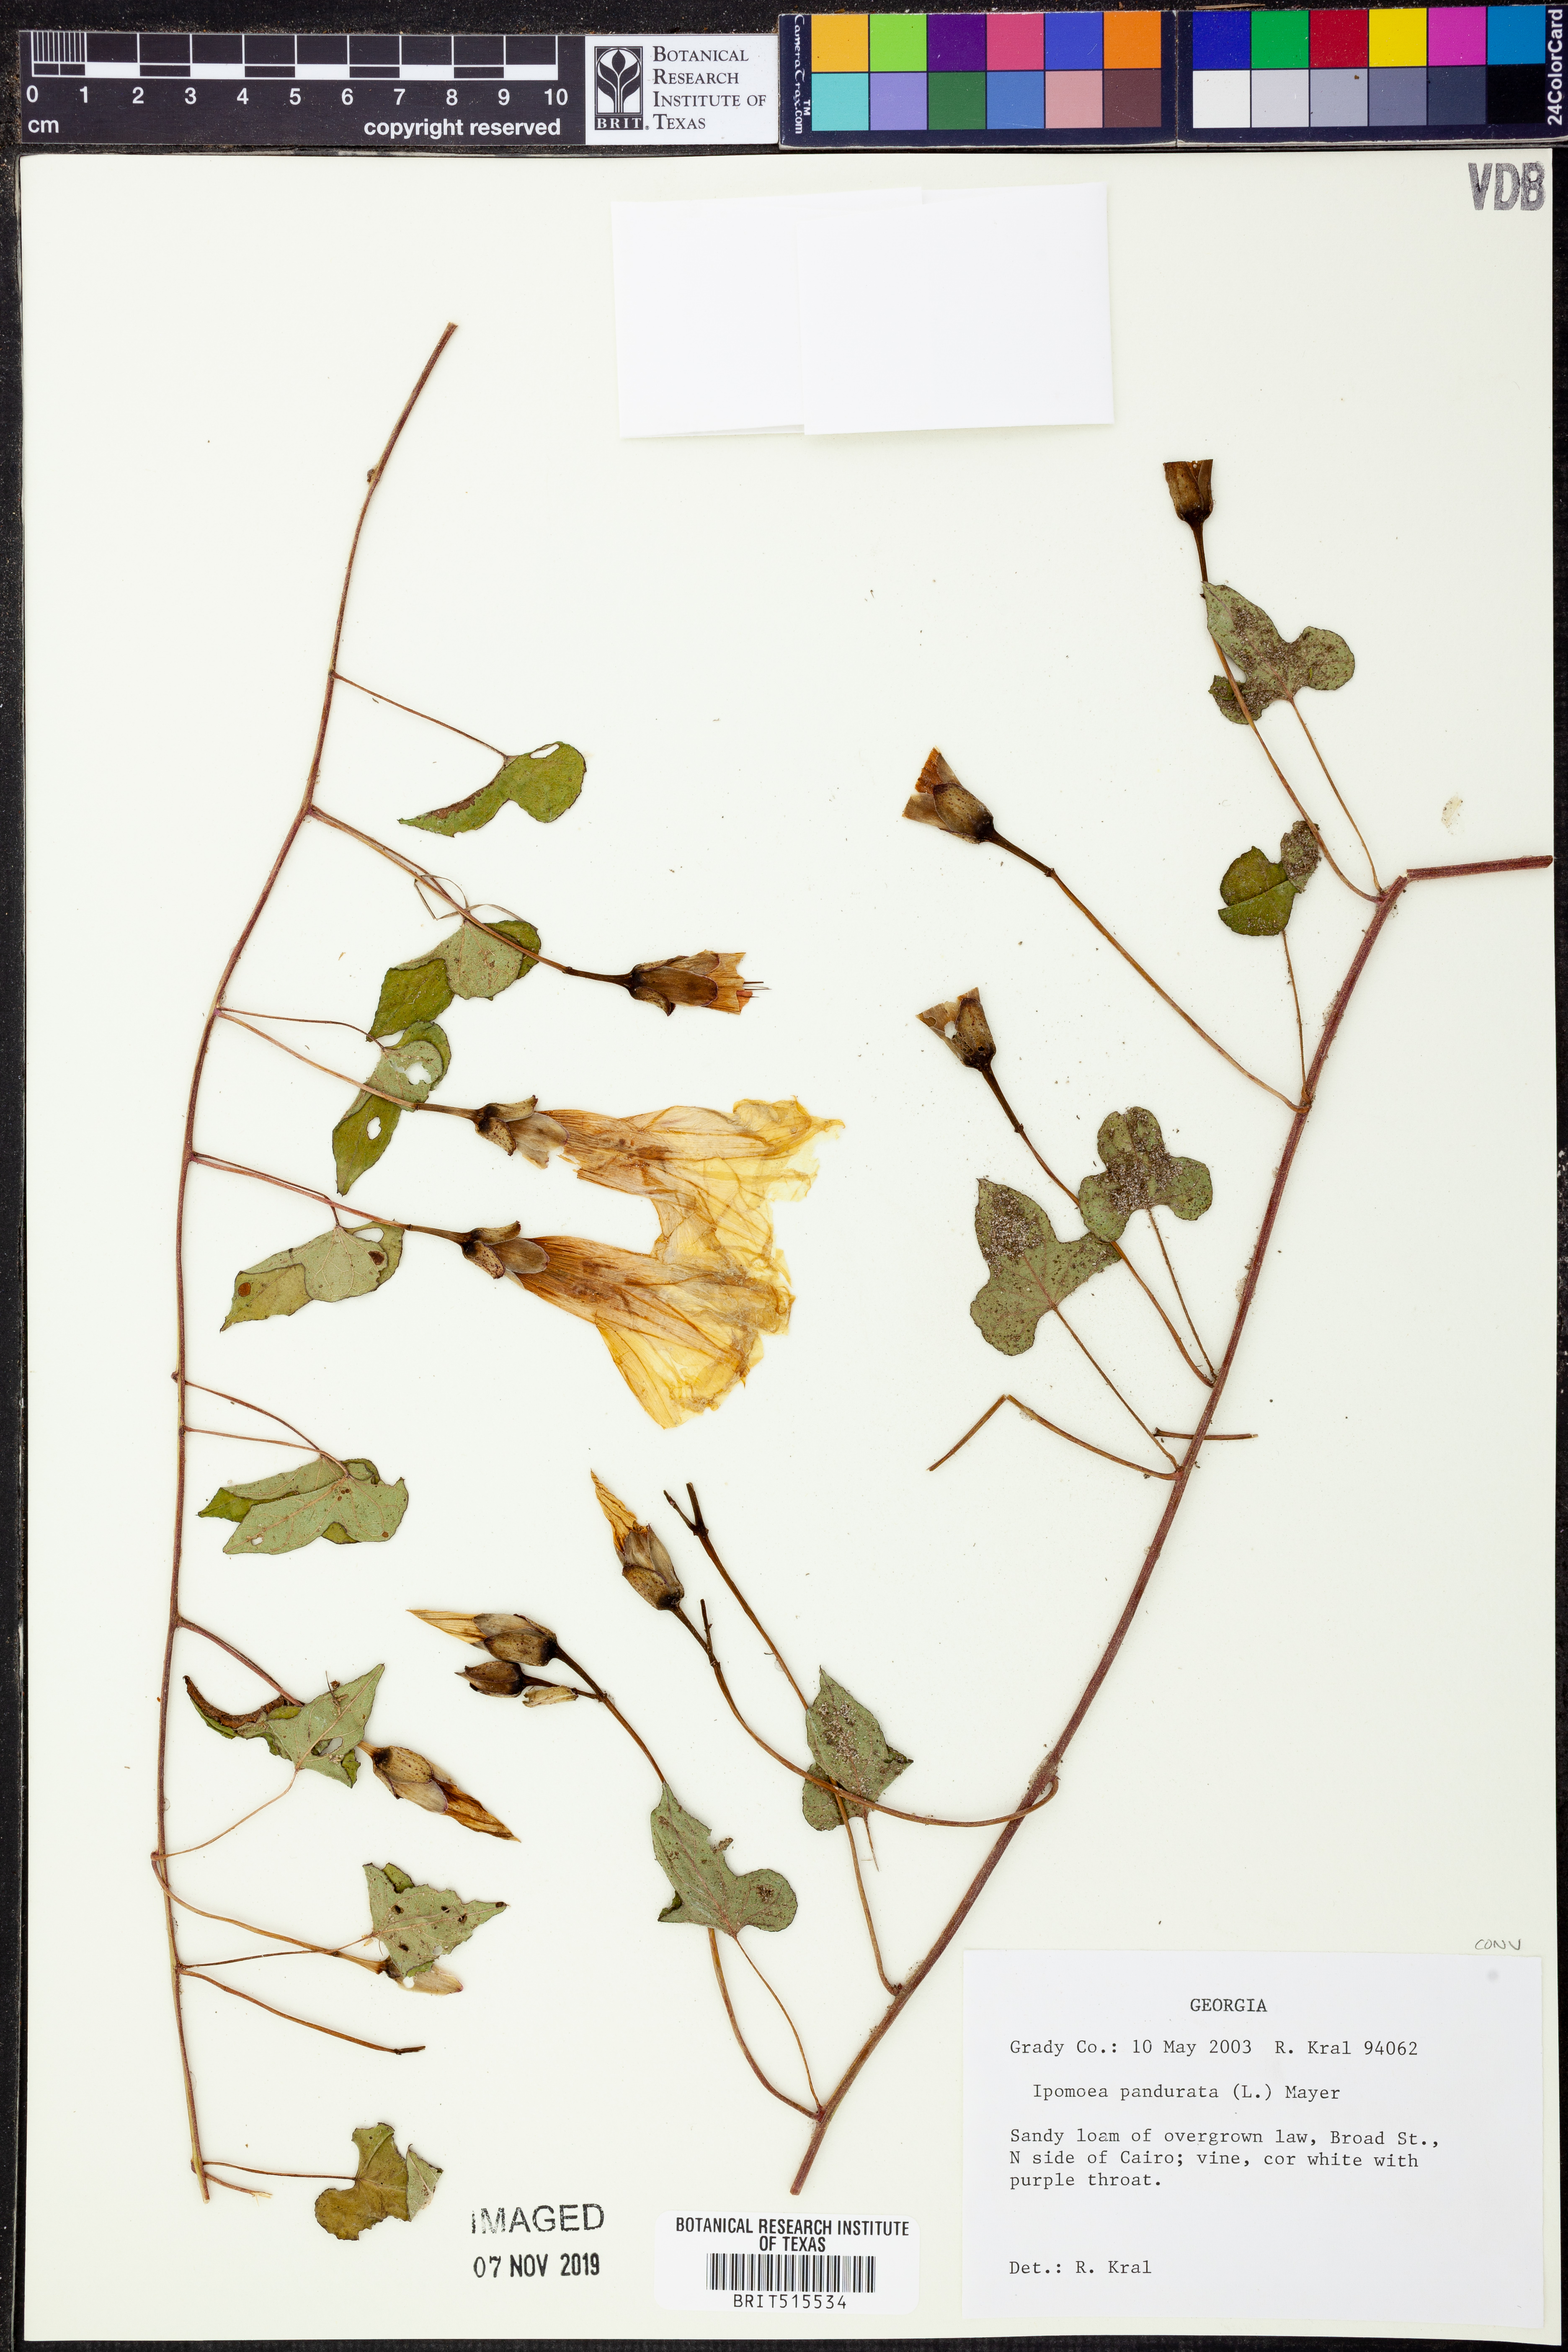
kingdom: Plantae
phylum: Tracheophyta
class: Magnoliopsida
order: Solanales
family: Convolvulaceae
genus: Ipomoea
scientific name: Ipomoea pandurata
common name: Man-of-the-earth
